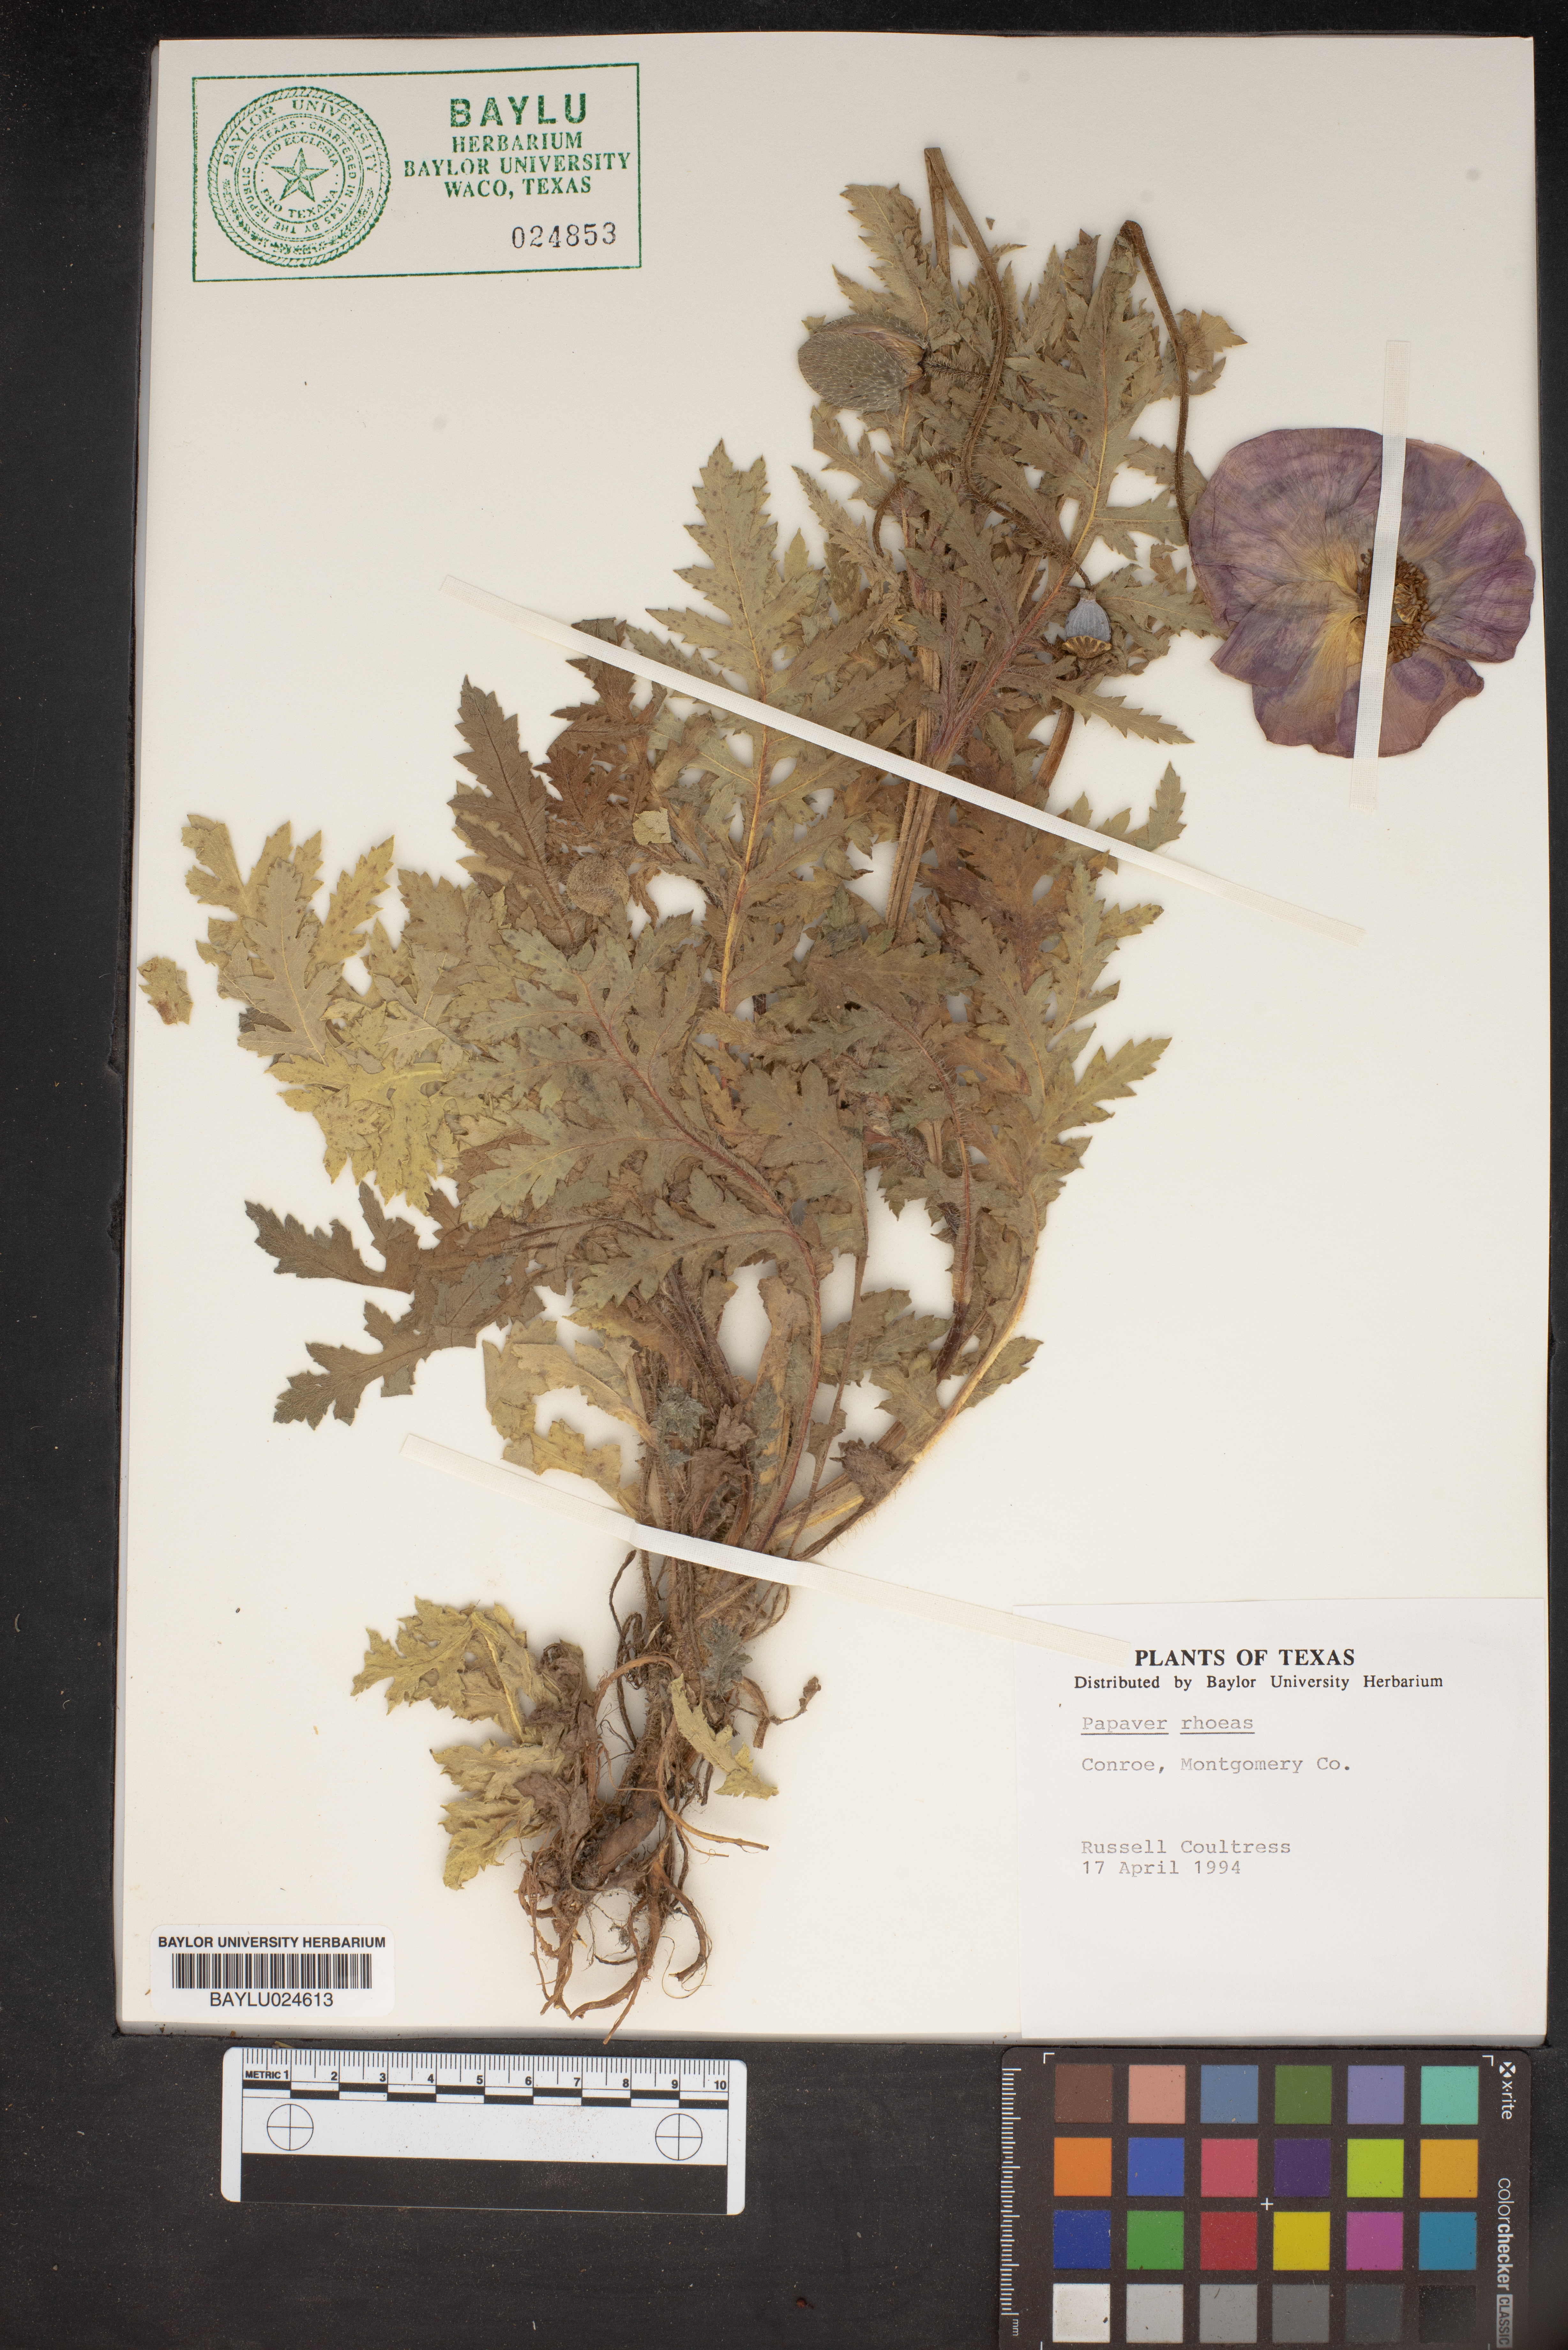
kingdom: Plantae
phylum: Tracheophyta
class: Magnoliopsida
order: Ranunculales
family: Papaveraceae
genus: Papaver
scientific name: Papaver rhoeas
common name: Corn poppy
